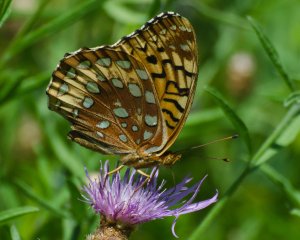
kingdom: Animalia
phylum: Arthropoda
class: Insecta
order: Lepidoptera
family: Nymphalidae
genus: Speyeria
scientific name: Speyeria cybele
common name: Great Spangled Fritillary
